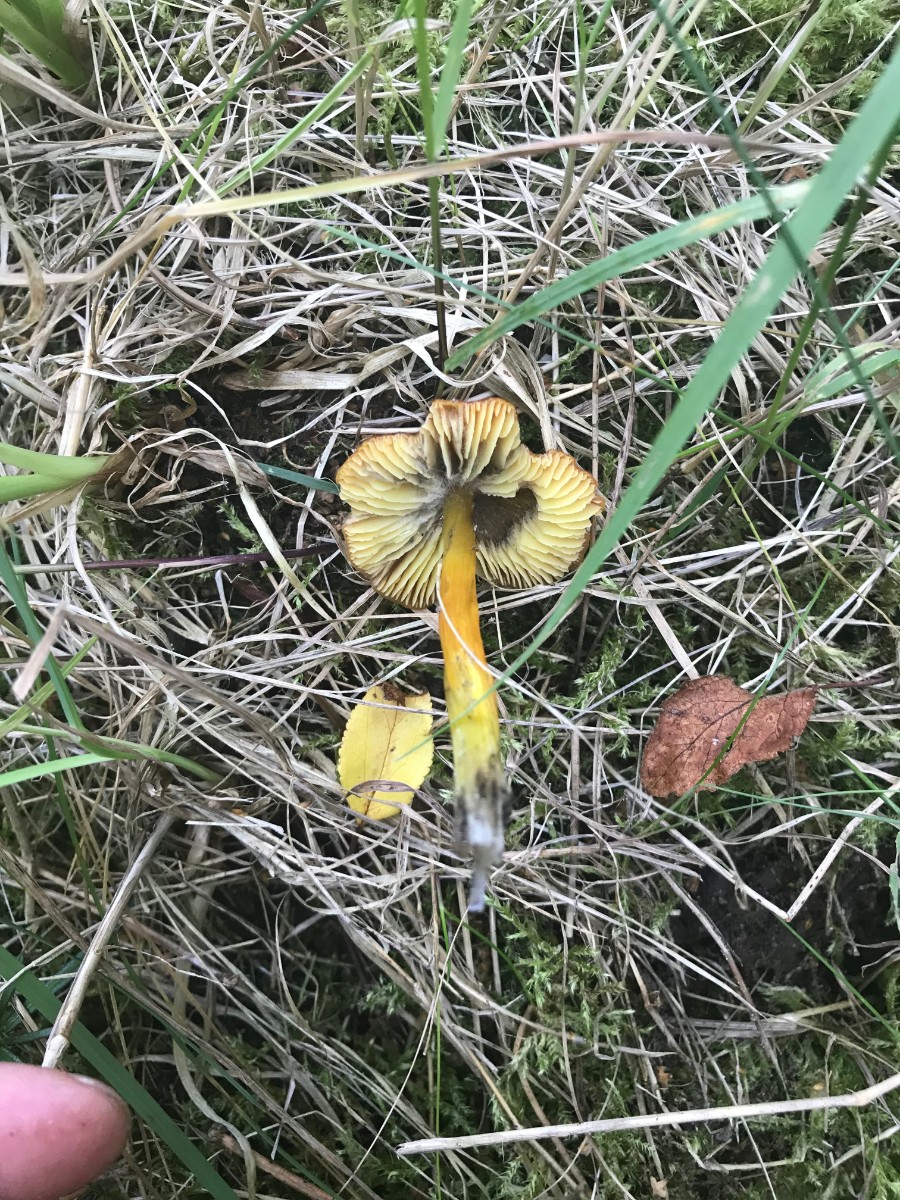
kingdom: Fungi
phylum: Basidiomycota
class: Agaricomycetes
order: Agaricales
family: Hygrophoraceae
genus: Hygrocybe
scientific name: Hygrocybe conica
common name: kegle-vokshat
